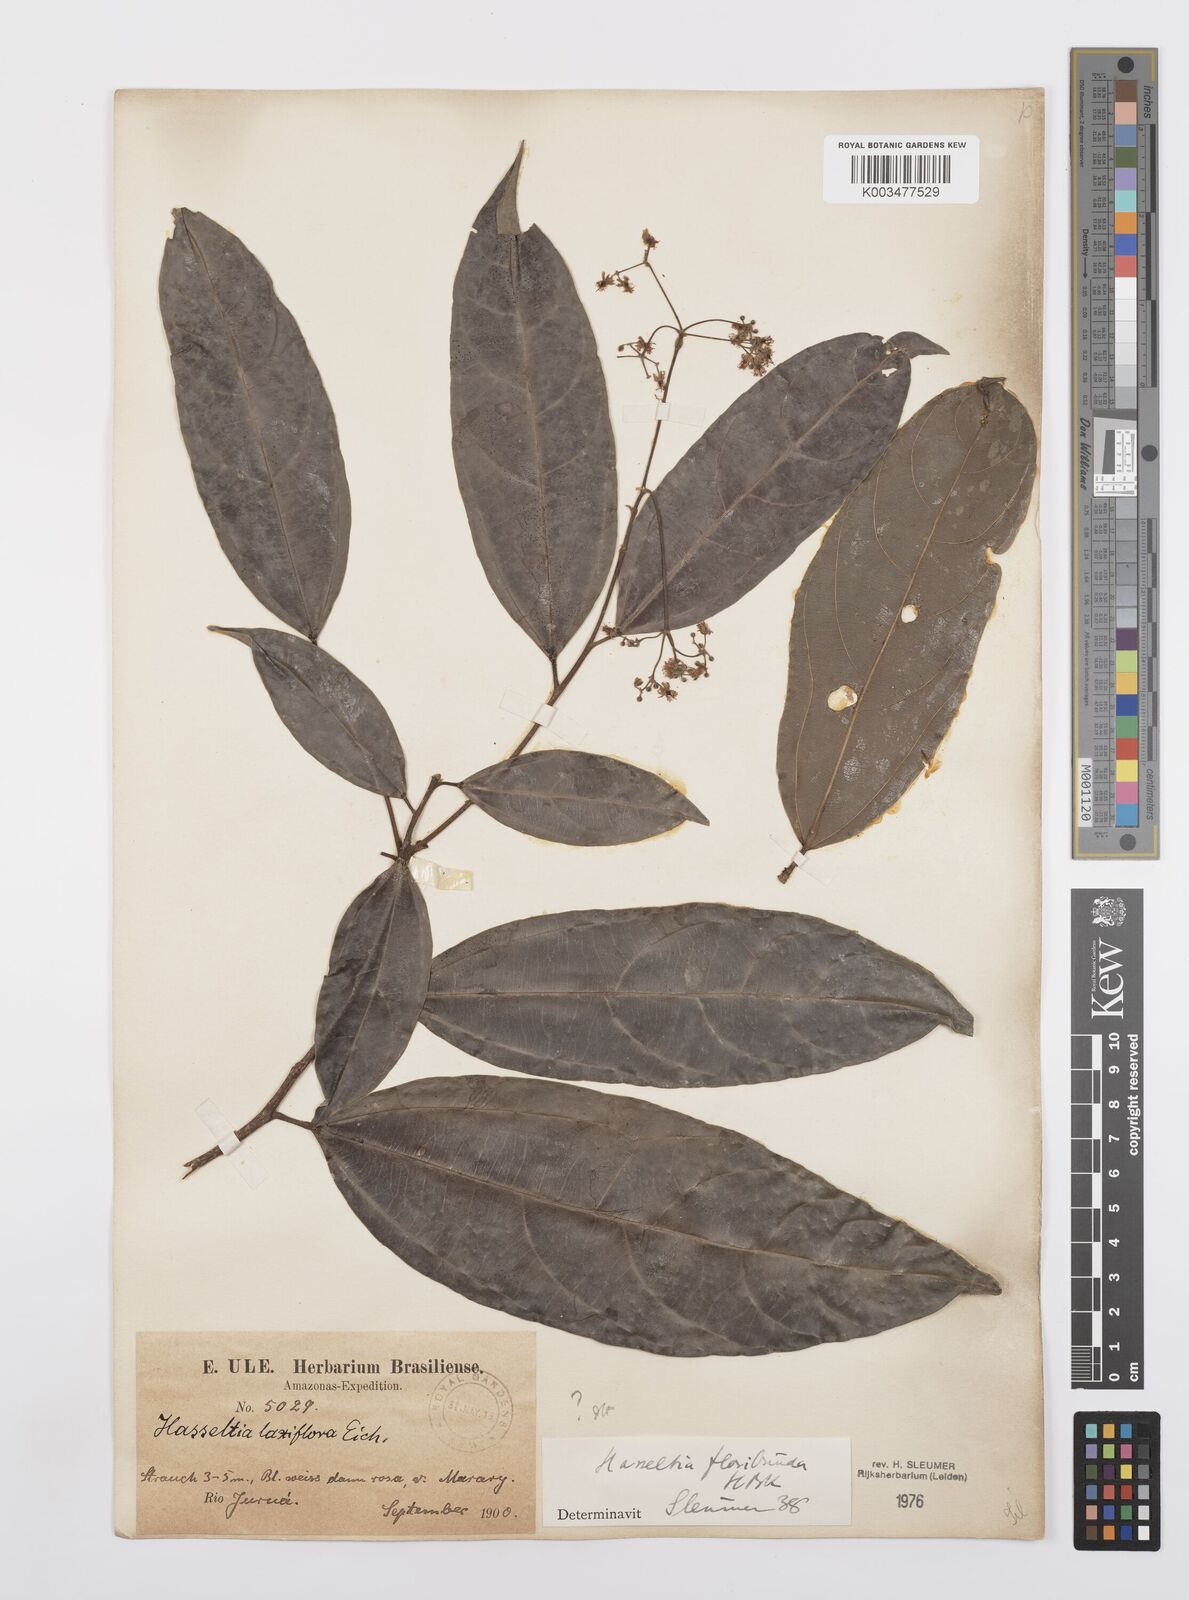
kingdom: Plantae
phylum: Tracheophyta
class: Magnoliopsida
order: Malpighiales
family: Salicaceae
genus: Hasseltia
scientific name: Hasseltia floribunda
